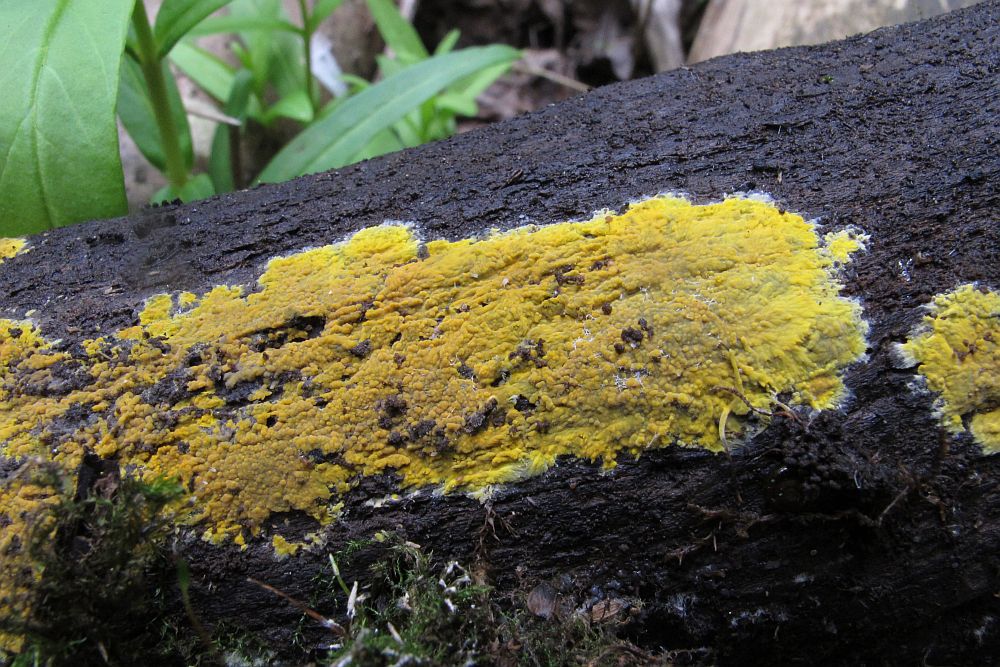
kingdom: Fungi
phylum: Basidiomycota
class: Agaricomycetes
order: Polyporales
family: Meruliaceae
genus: Phlebiodontia
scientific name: Phlebiodontia subochracea
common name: svovl-åresvamp
